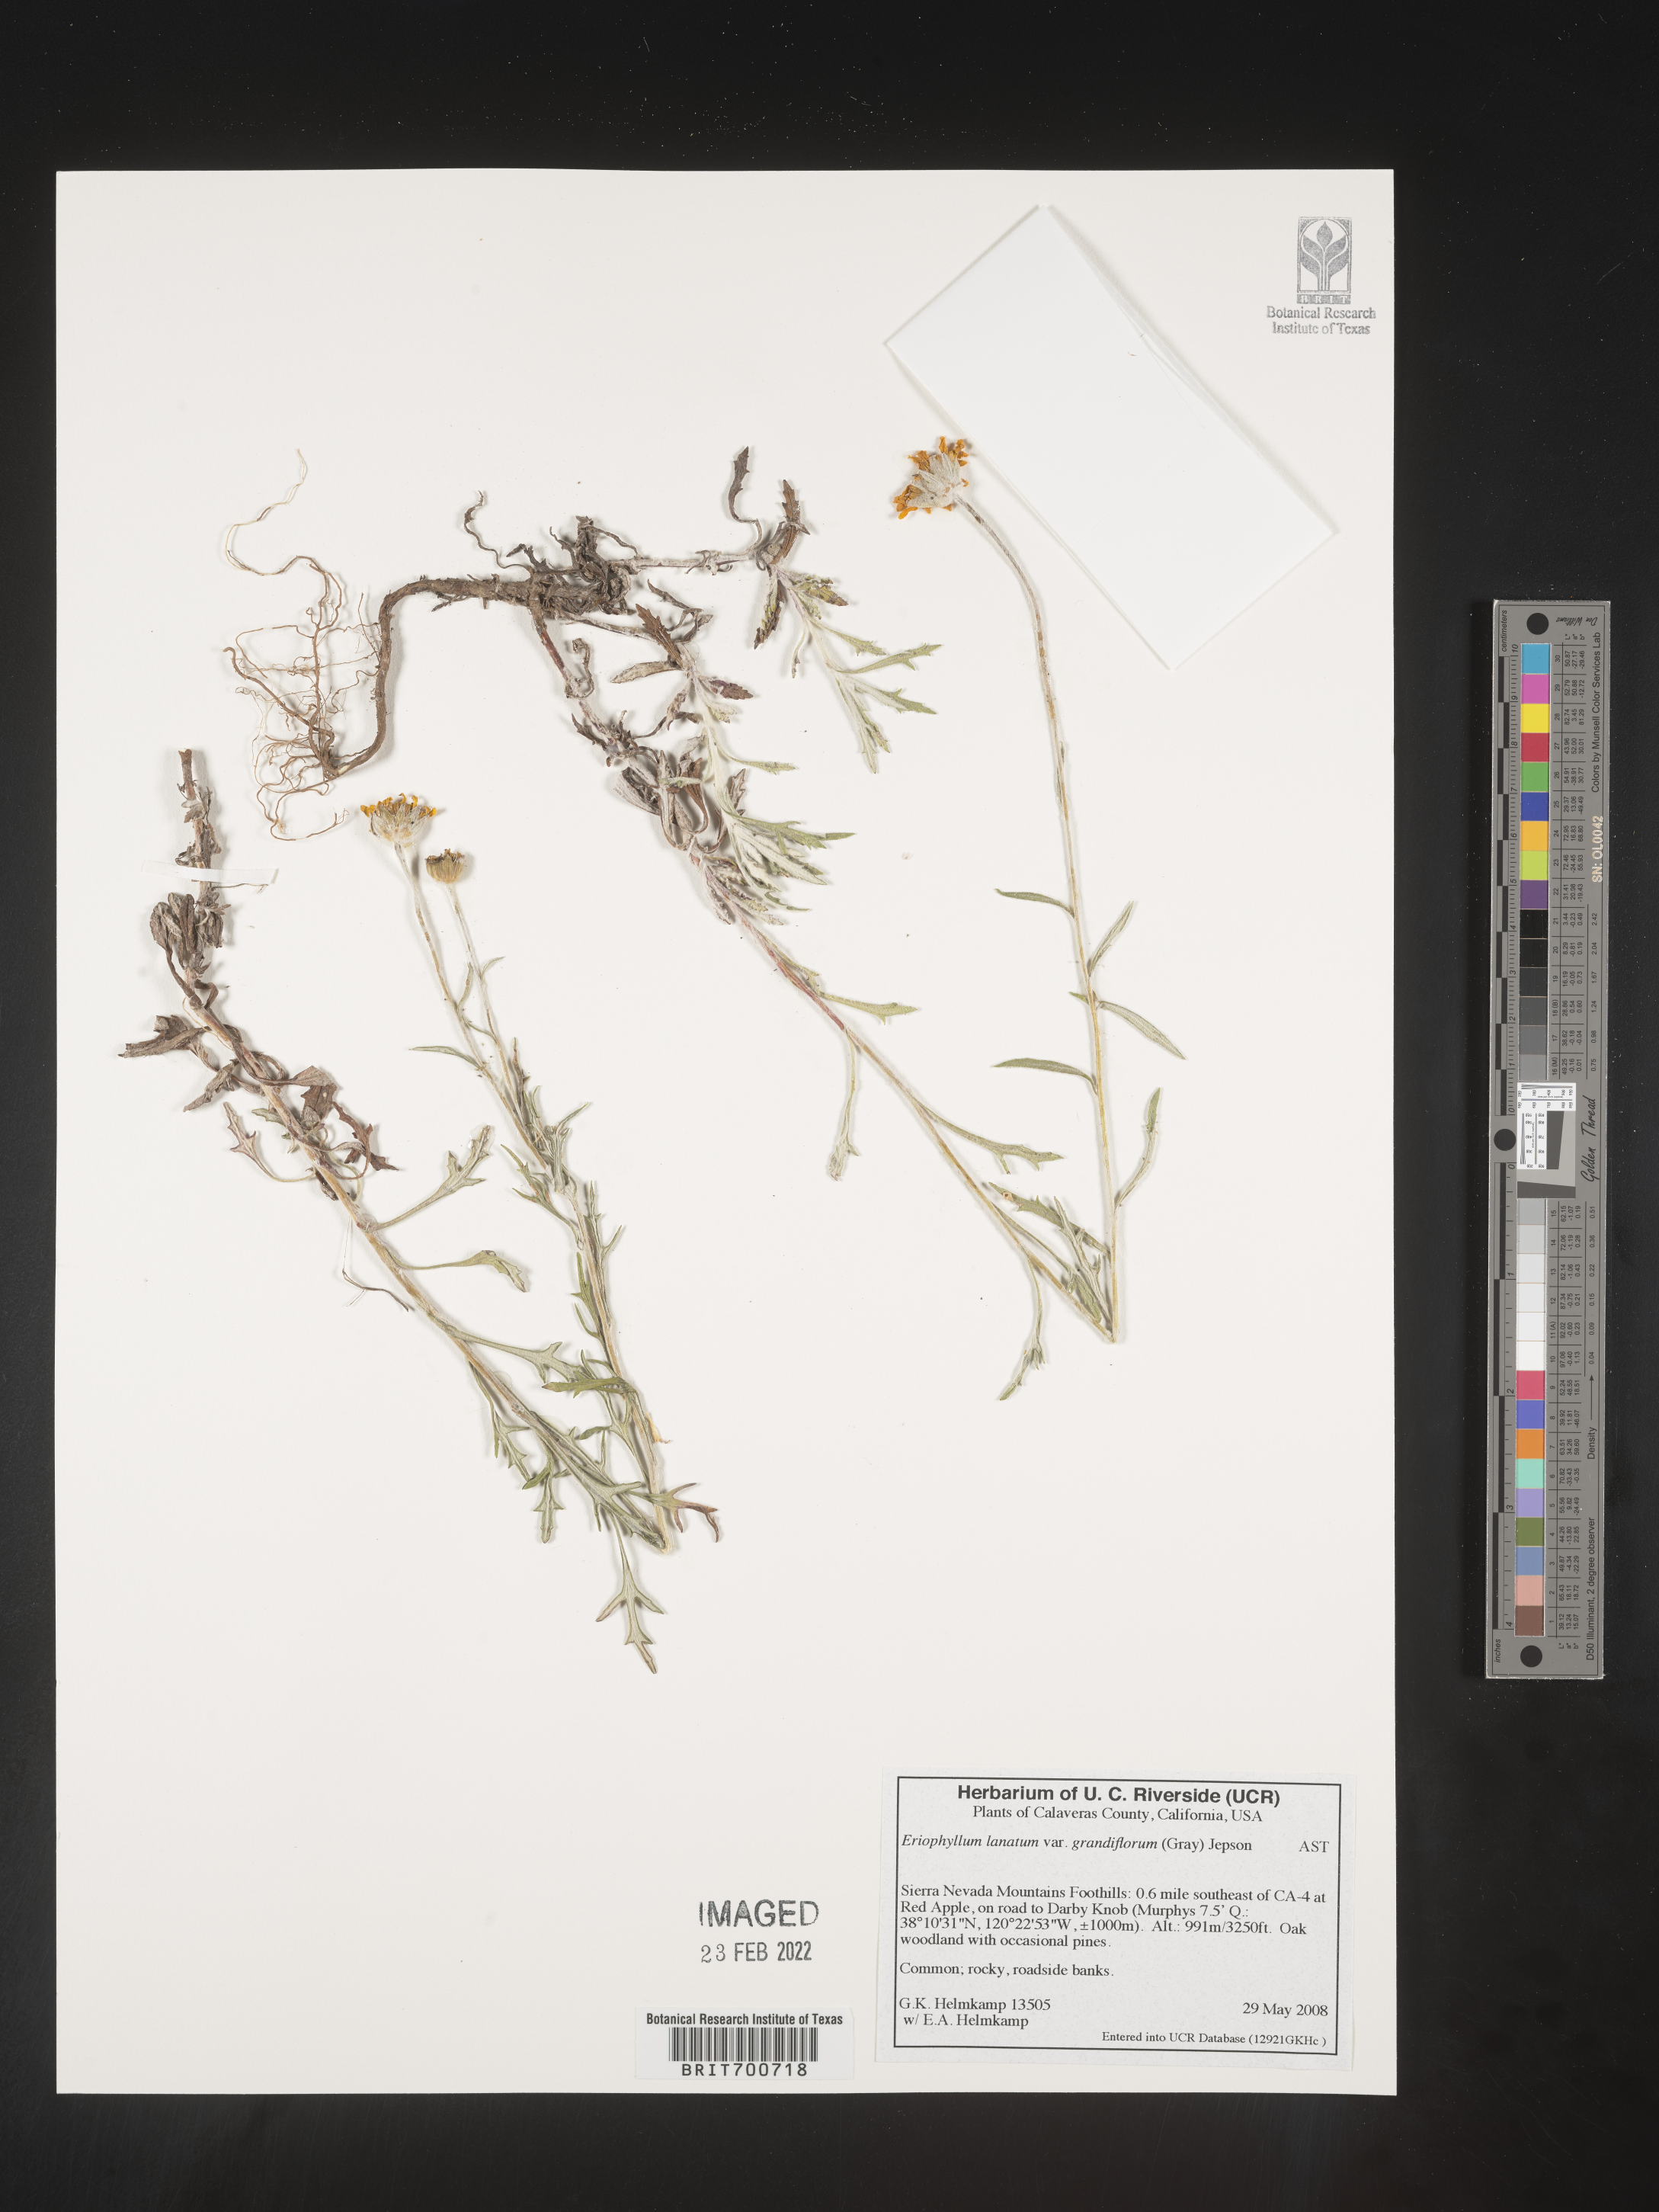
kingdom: Plantae
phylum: Tracheophyta
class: Magnoliopsida
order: Asterales
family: Asteraceae
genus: Eriophyllum
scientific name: Eriophyllum lanatum
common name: Common woolly-sunflower
